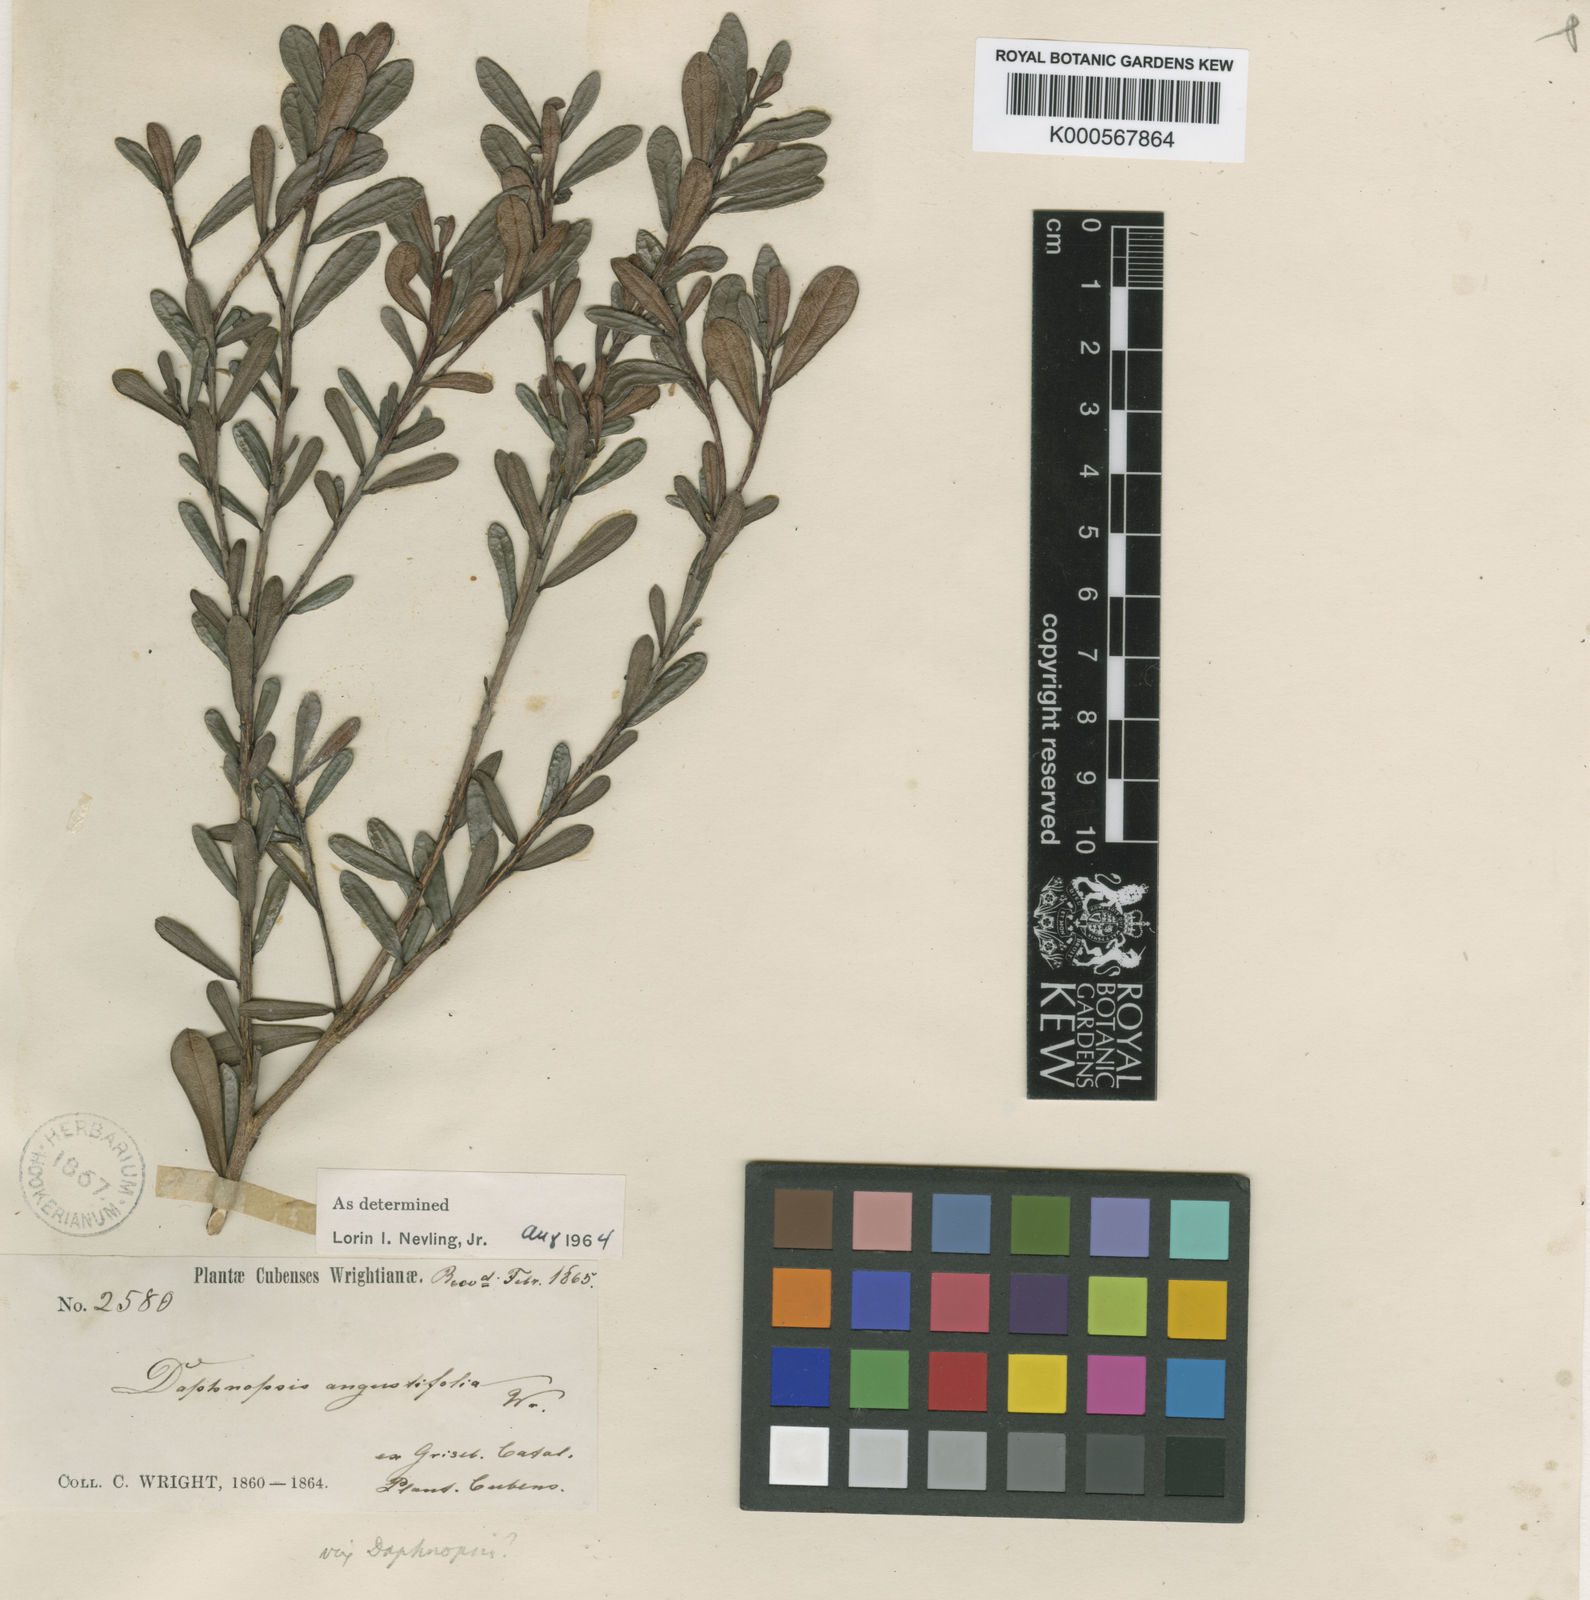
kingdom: Plantae
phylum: Tracheophyta
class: Magnoliopsida
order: Malvales
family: Thymelaeaceae
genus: Daphnopsis
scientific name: Daphnopsis angustifolia
